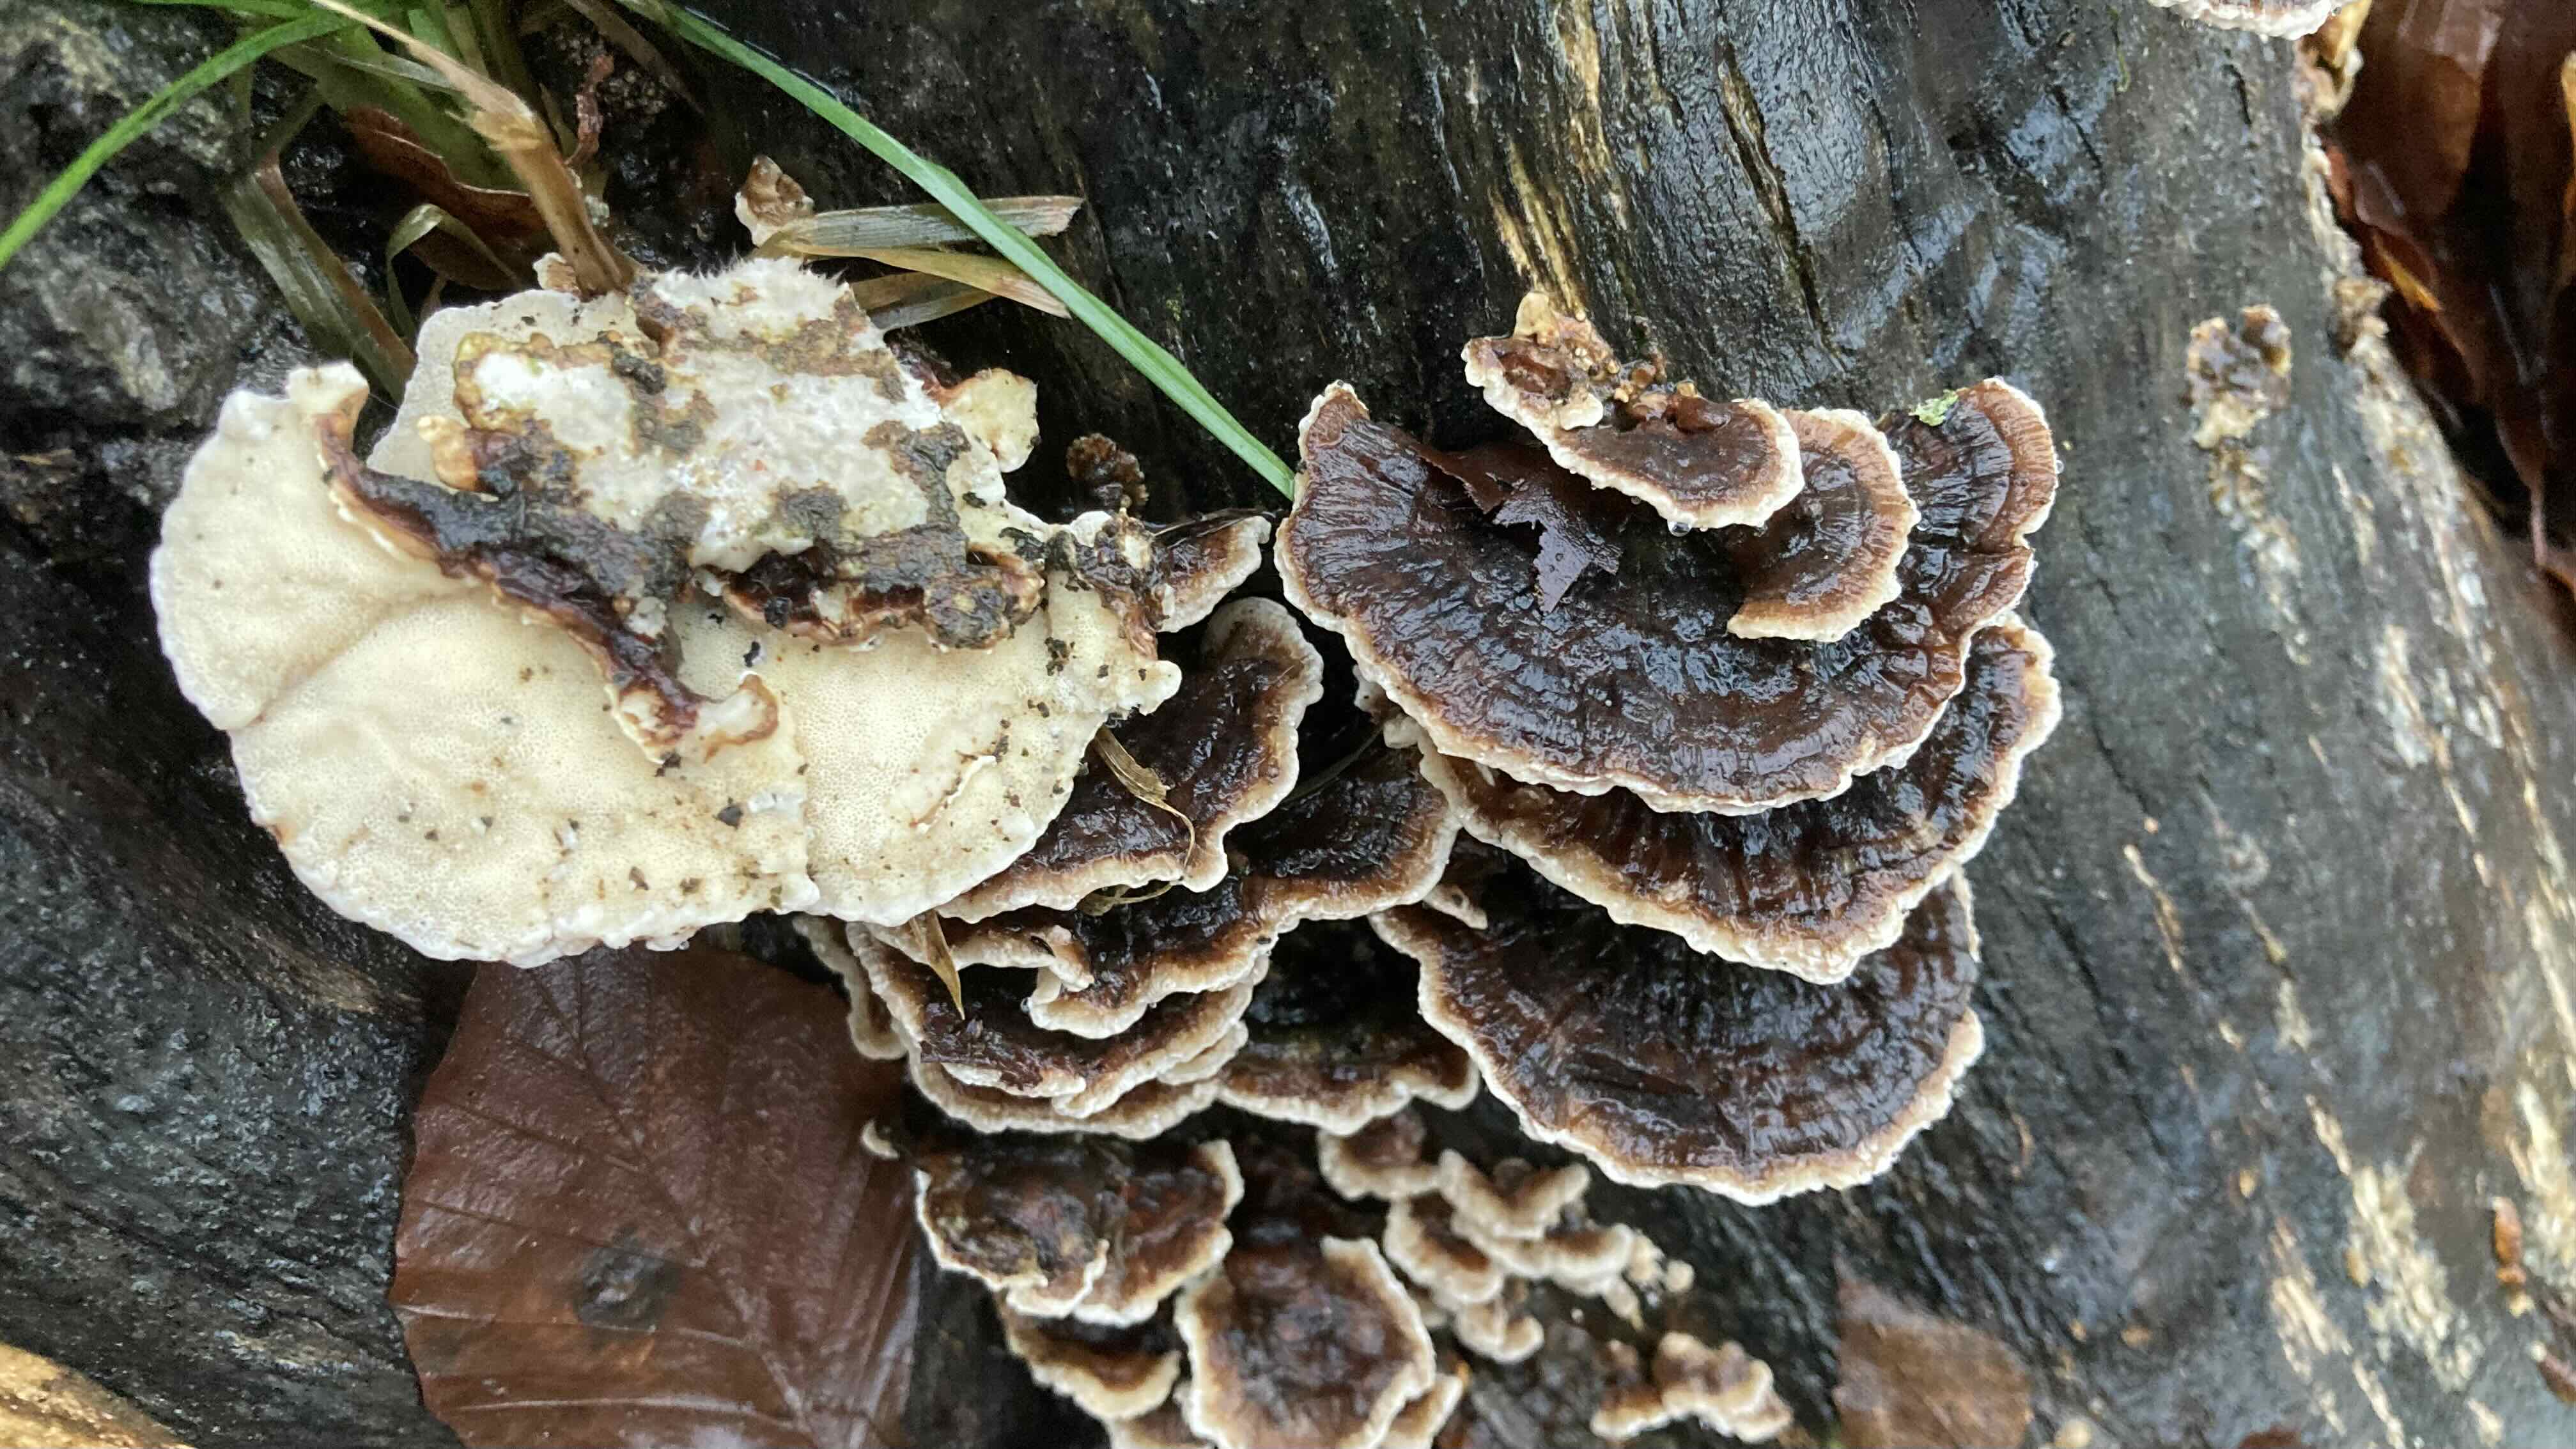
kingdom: Fungi
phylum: Basidiomycota
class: Agaricomycetes
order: Polyporales
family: Polyporaceae
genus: Trametes
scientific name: Trametes versicolor
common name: broget læderporesvamp
